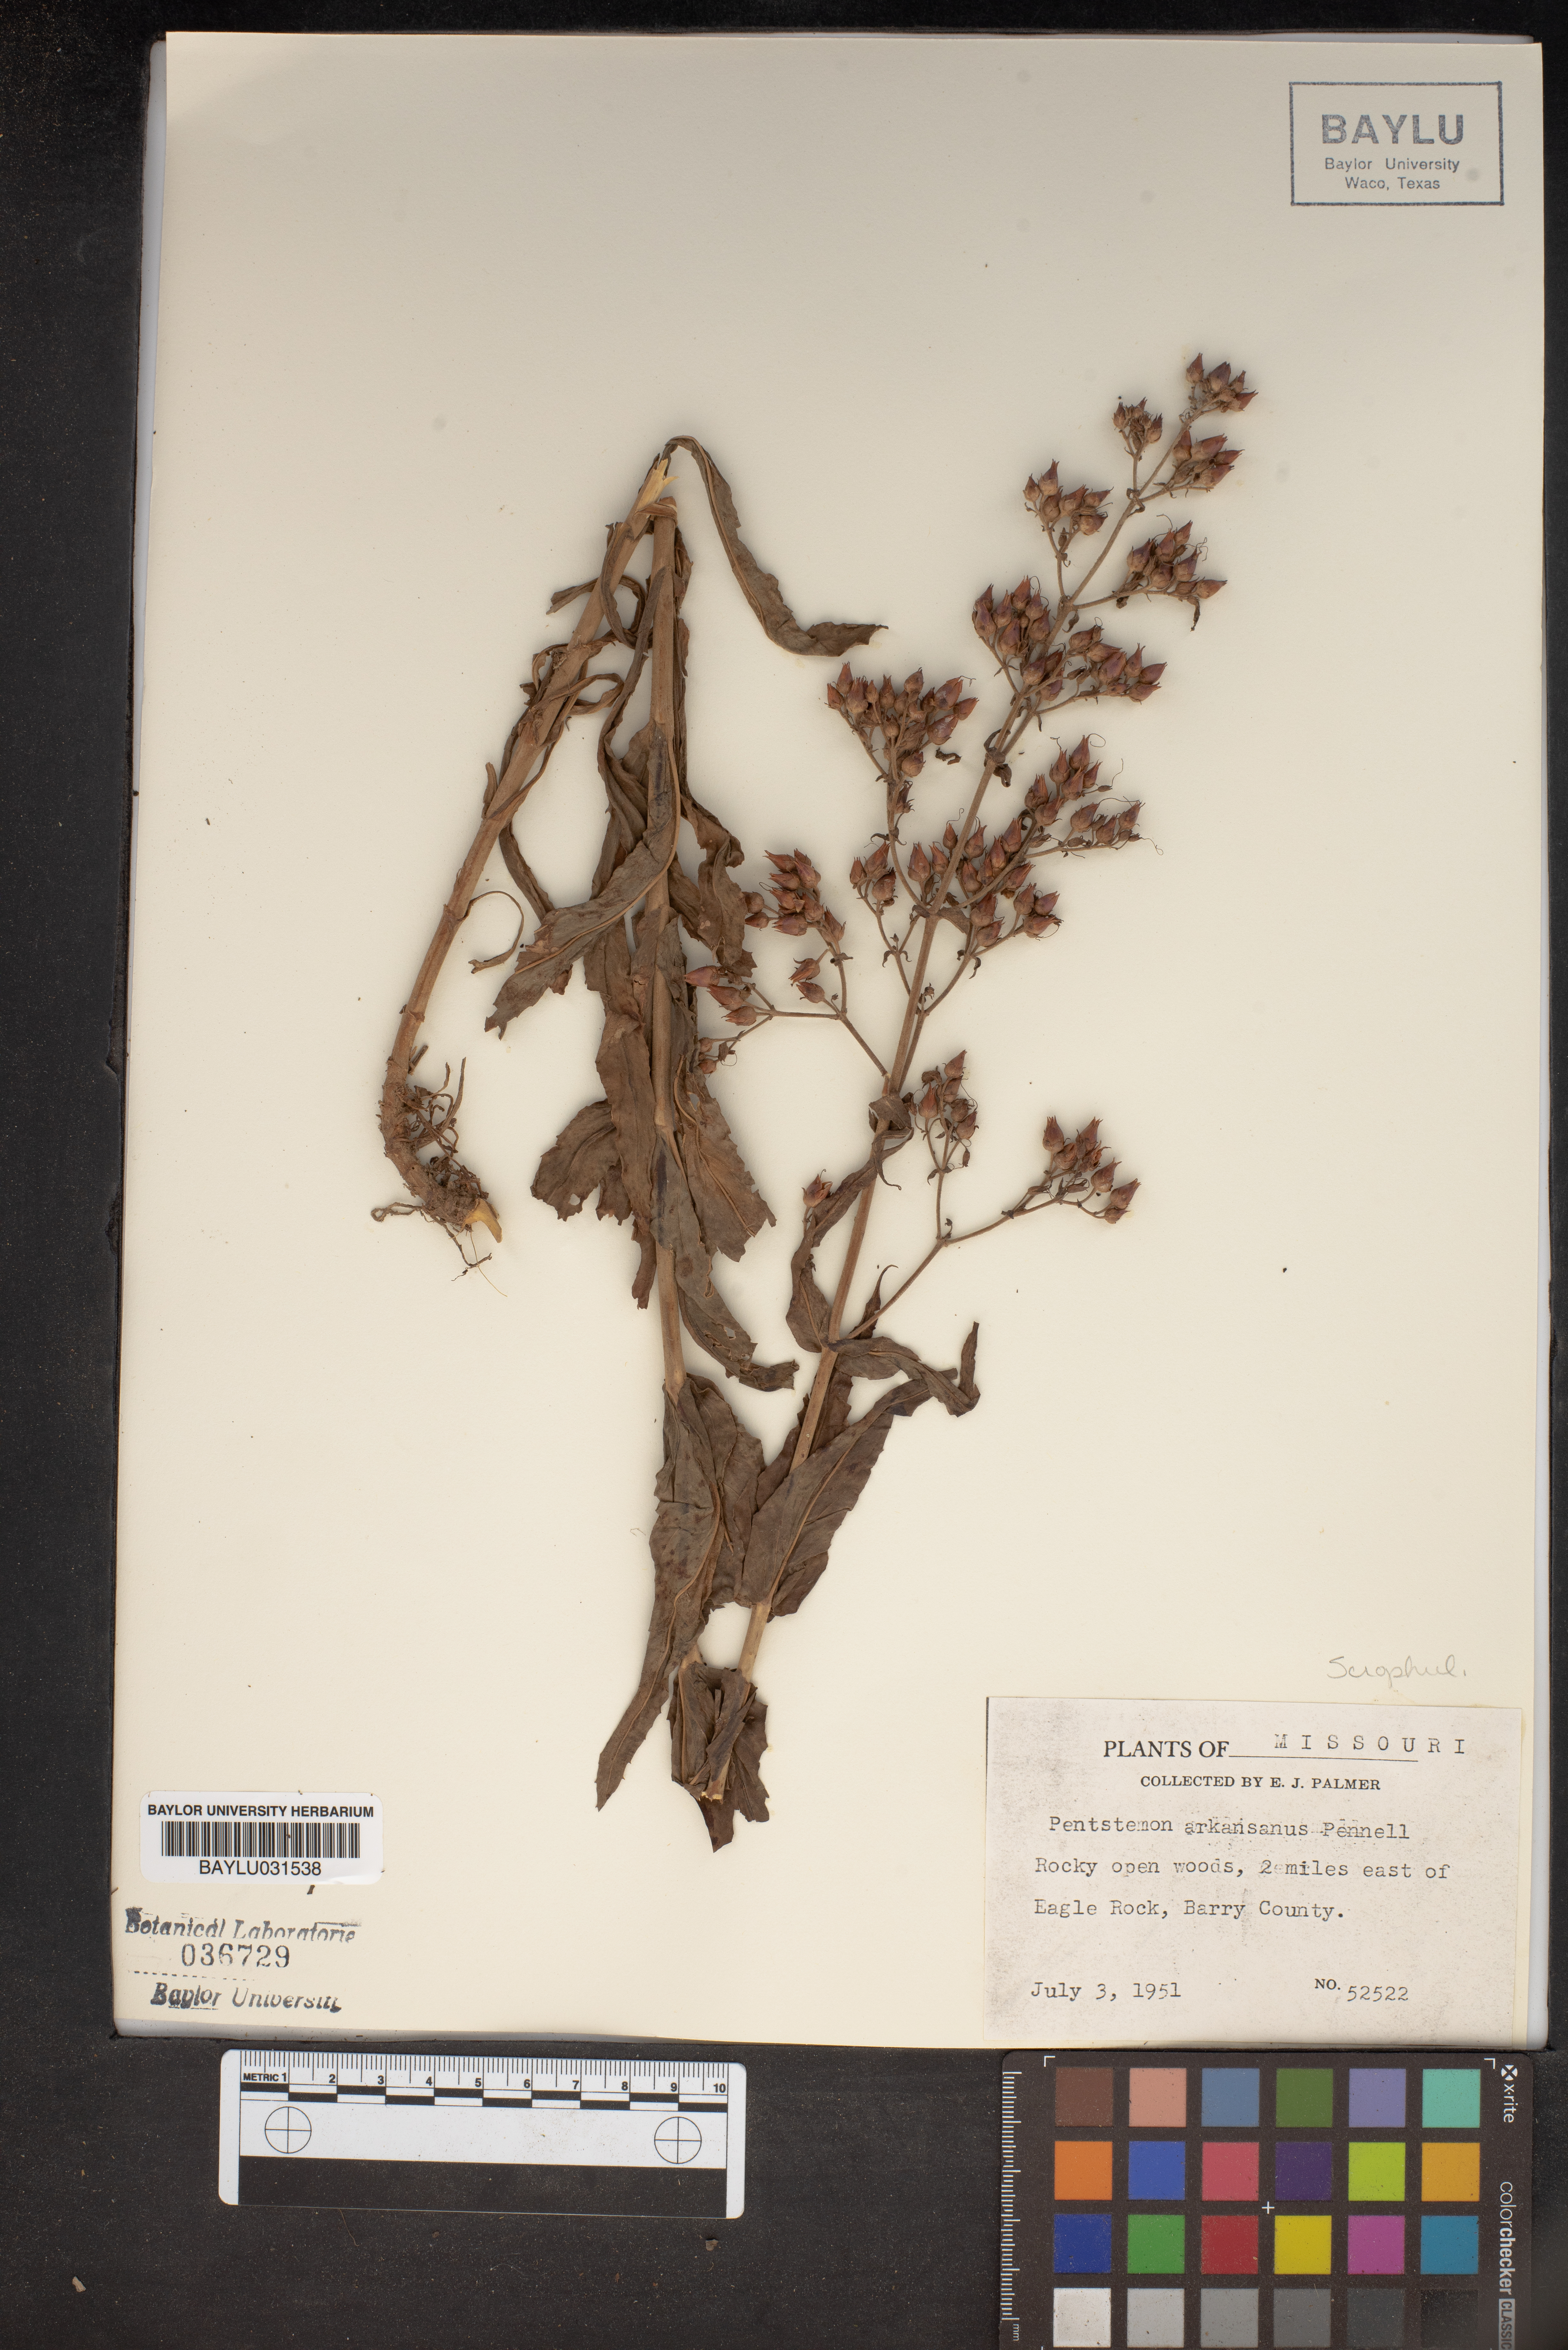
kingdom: Plantae
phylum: Tracheophyta
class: Magnoliopsida
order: Lamiales
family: Plantaginaceae
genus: Penstemon
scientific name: Penstemon arkansanus
